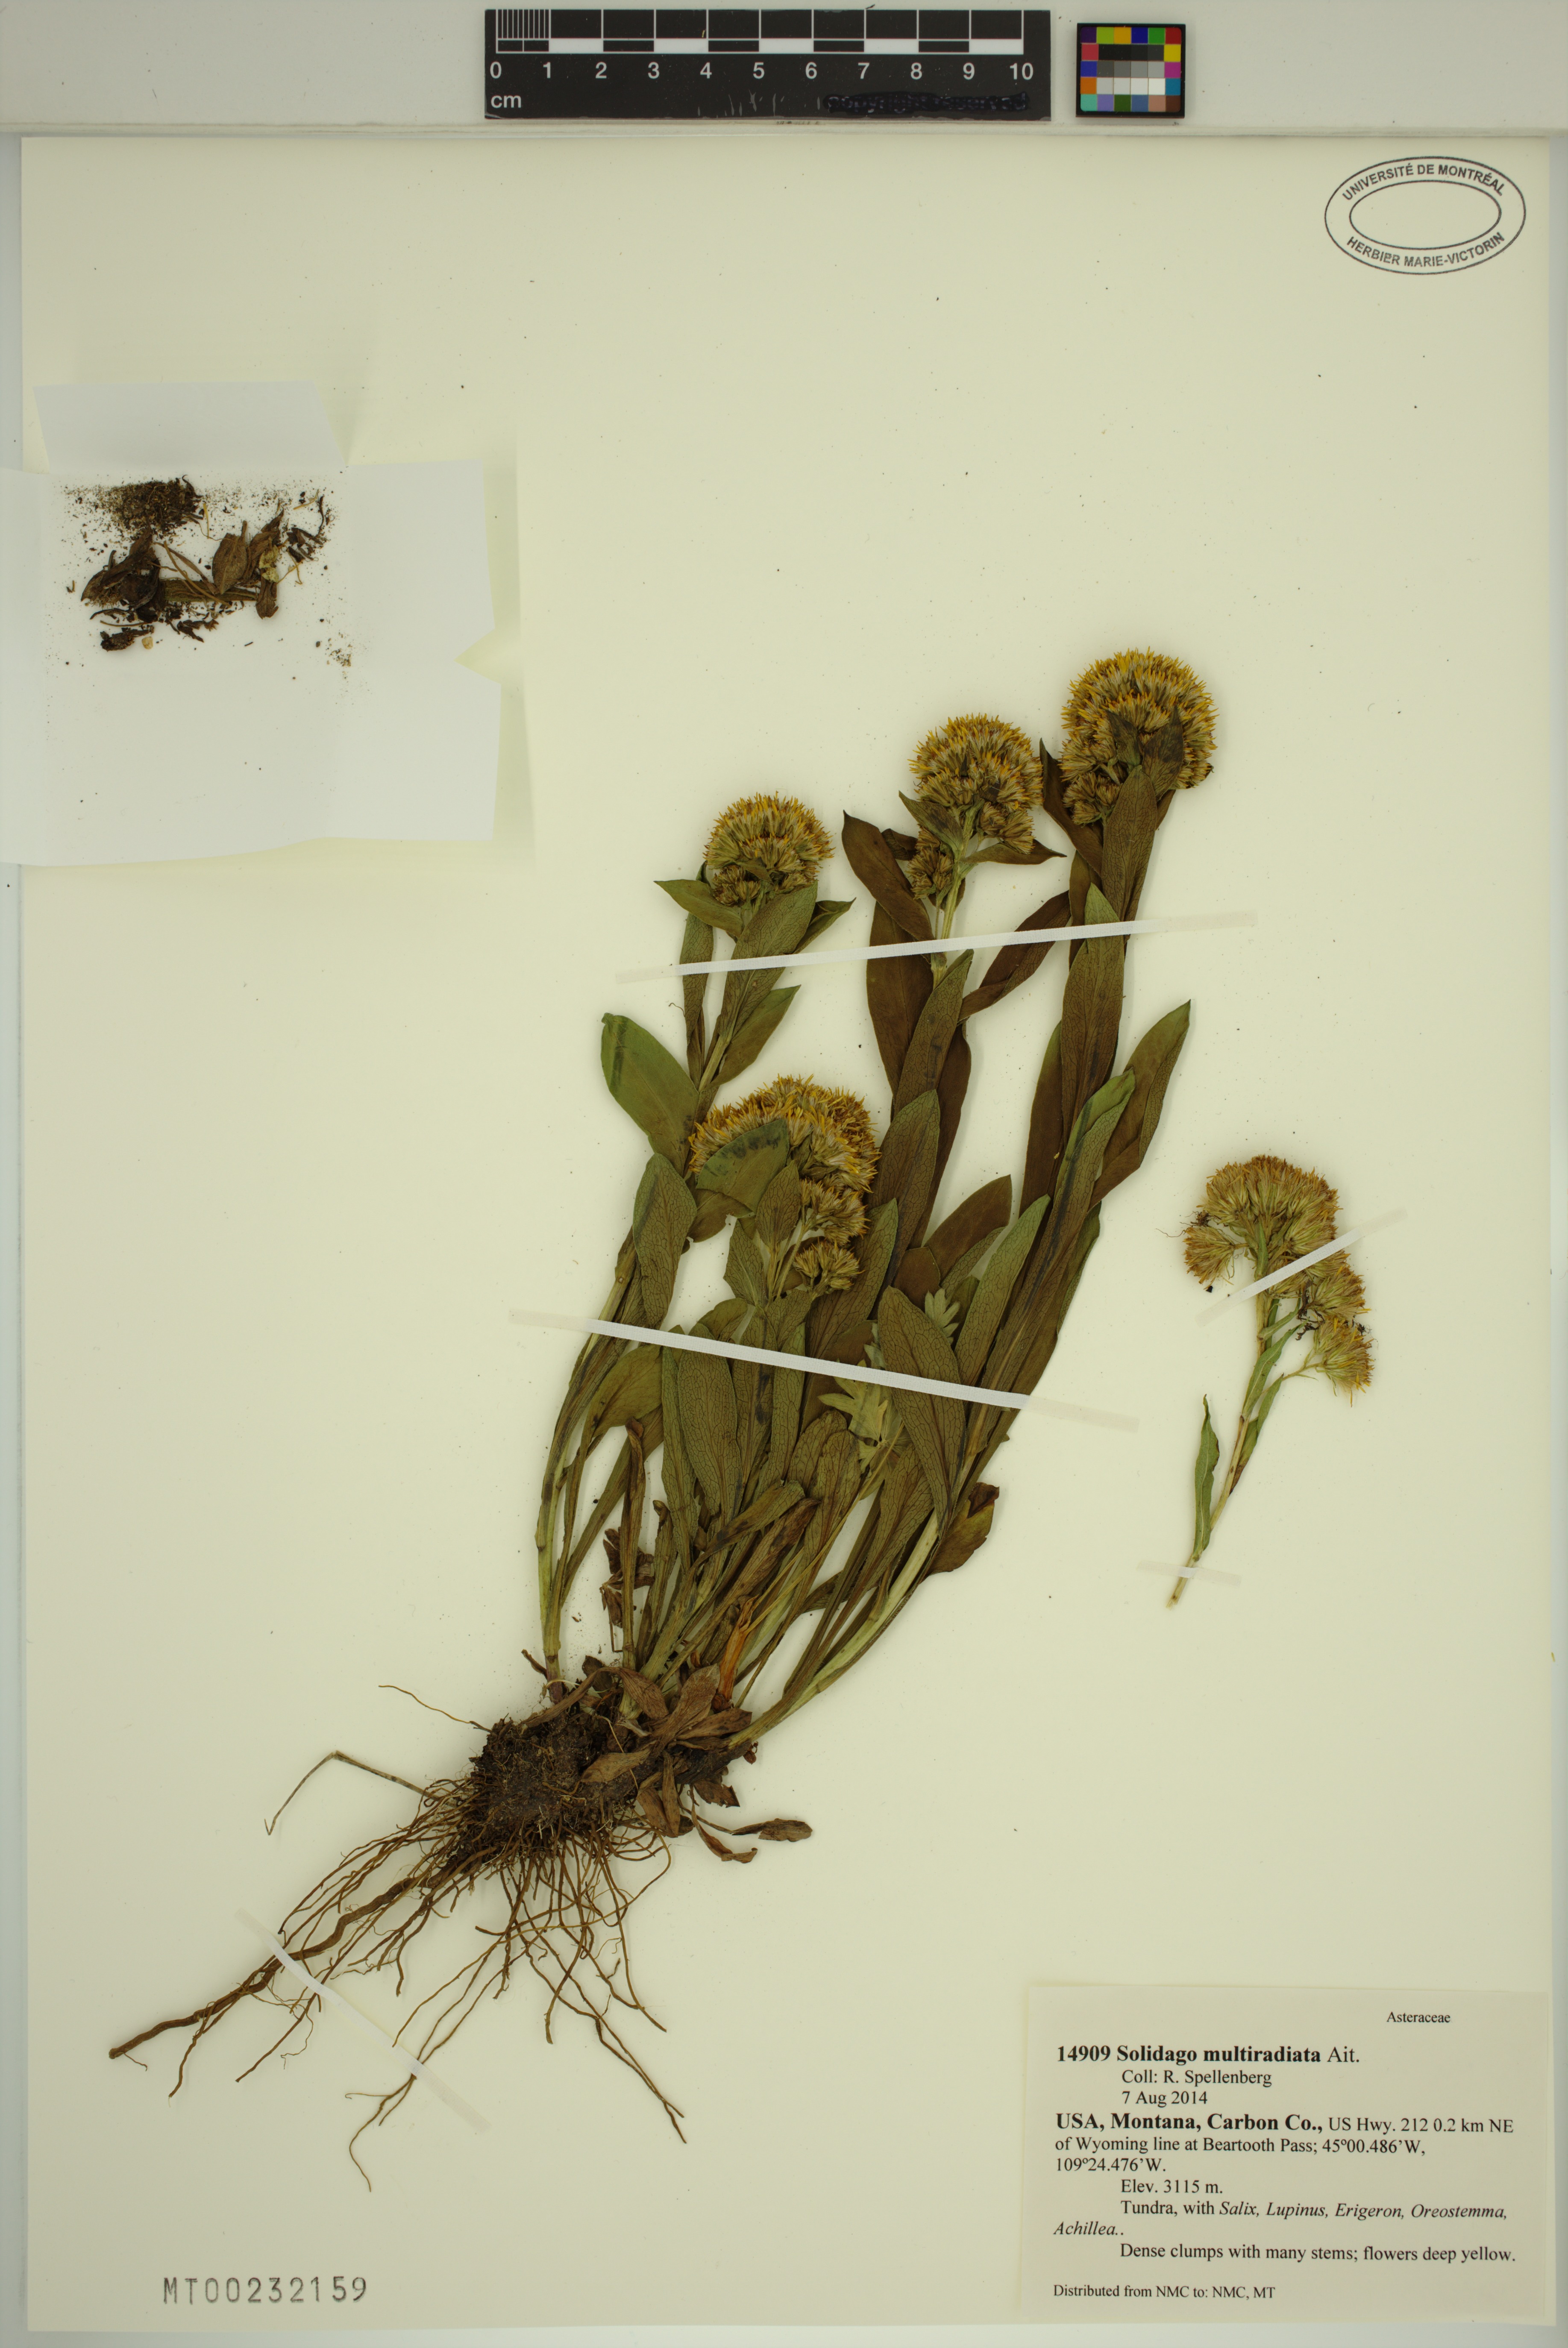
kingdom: Plantae
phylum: Tracheophyta
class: Magnoliopsida
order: Asterales
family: Asteraceae
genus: Solidago
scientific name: Solidago multiradiata
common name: Northern goldenrod
